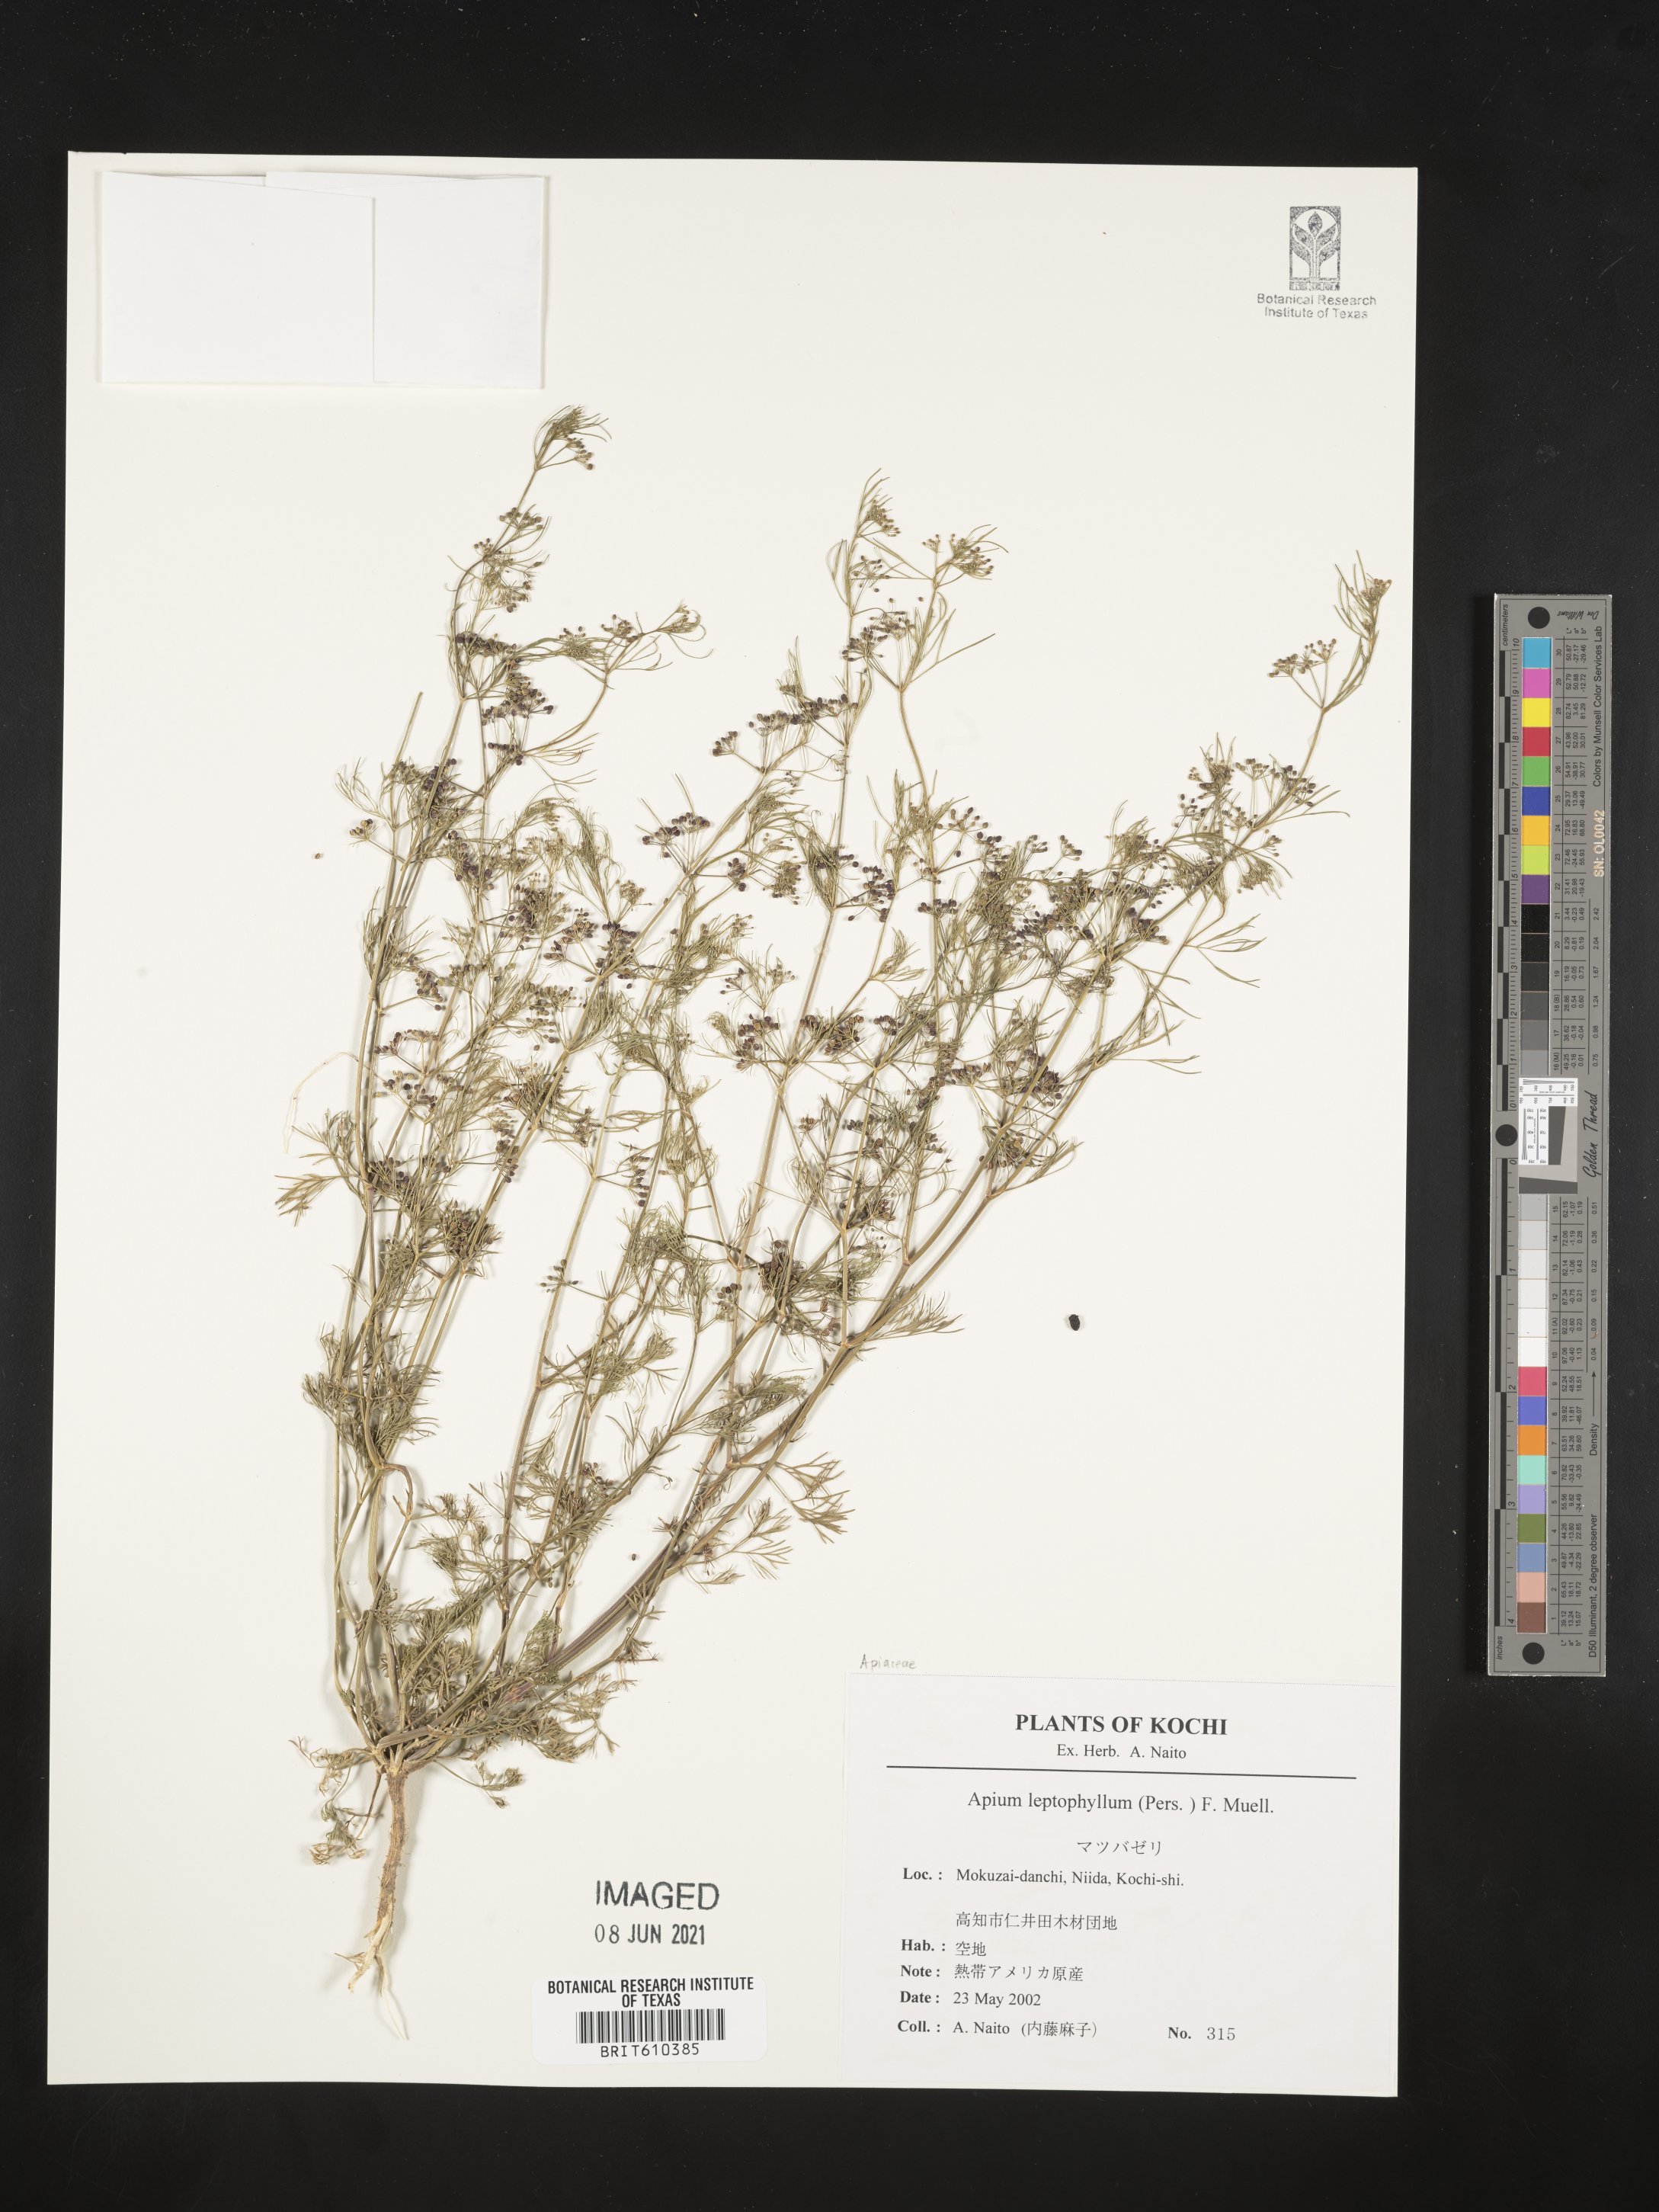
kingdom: Plantae
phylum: Tracheophyta
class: Magnoliopsida
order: Apiales
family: Apiaceae
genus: Cyclospermum
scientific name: Cyclospermum leptophyllum
